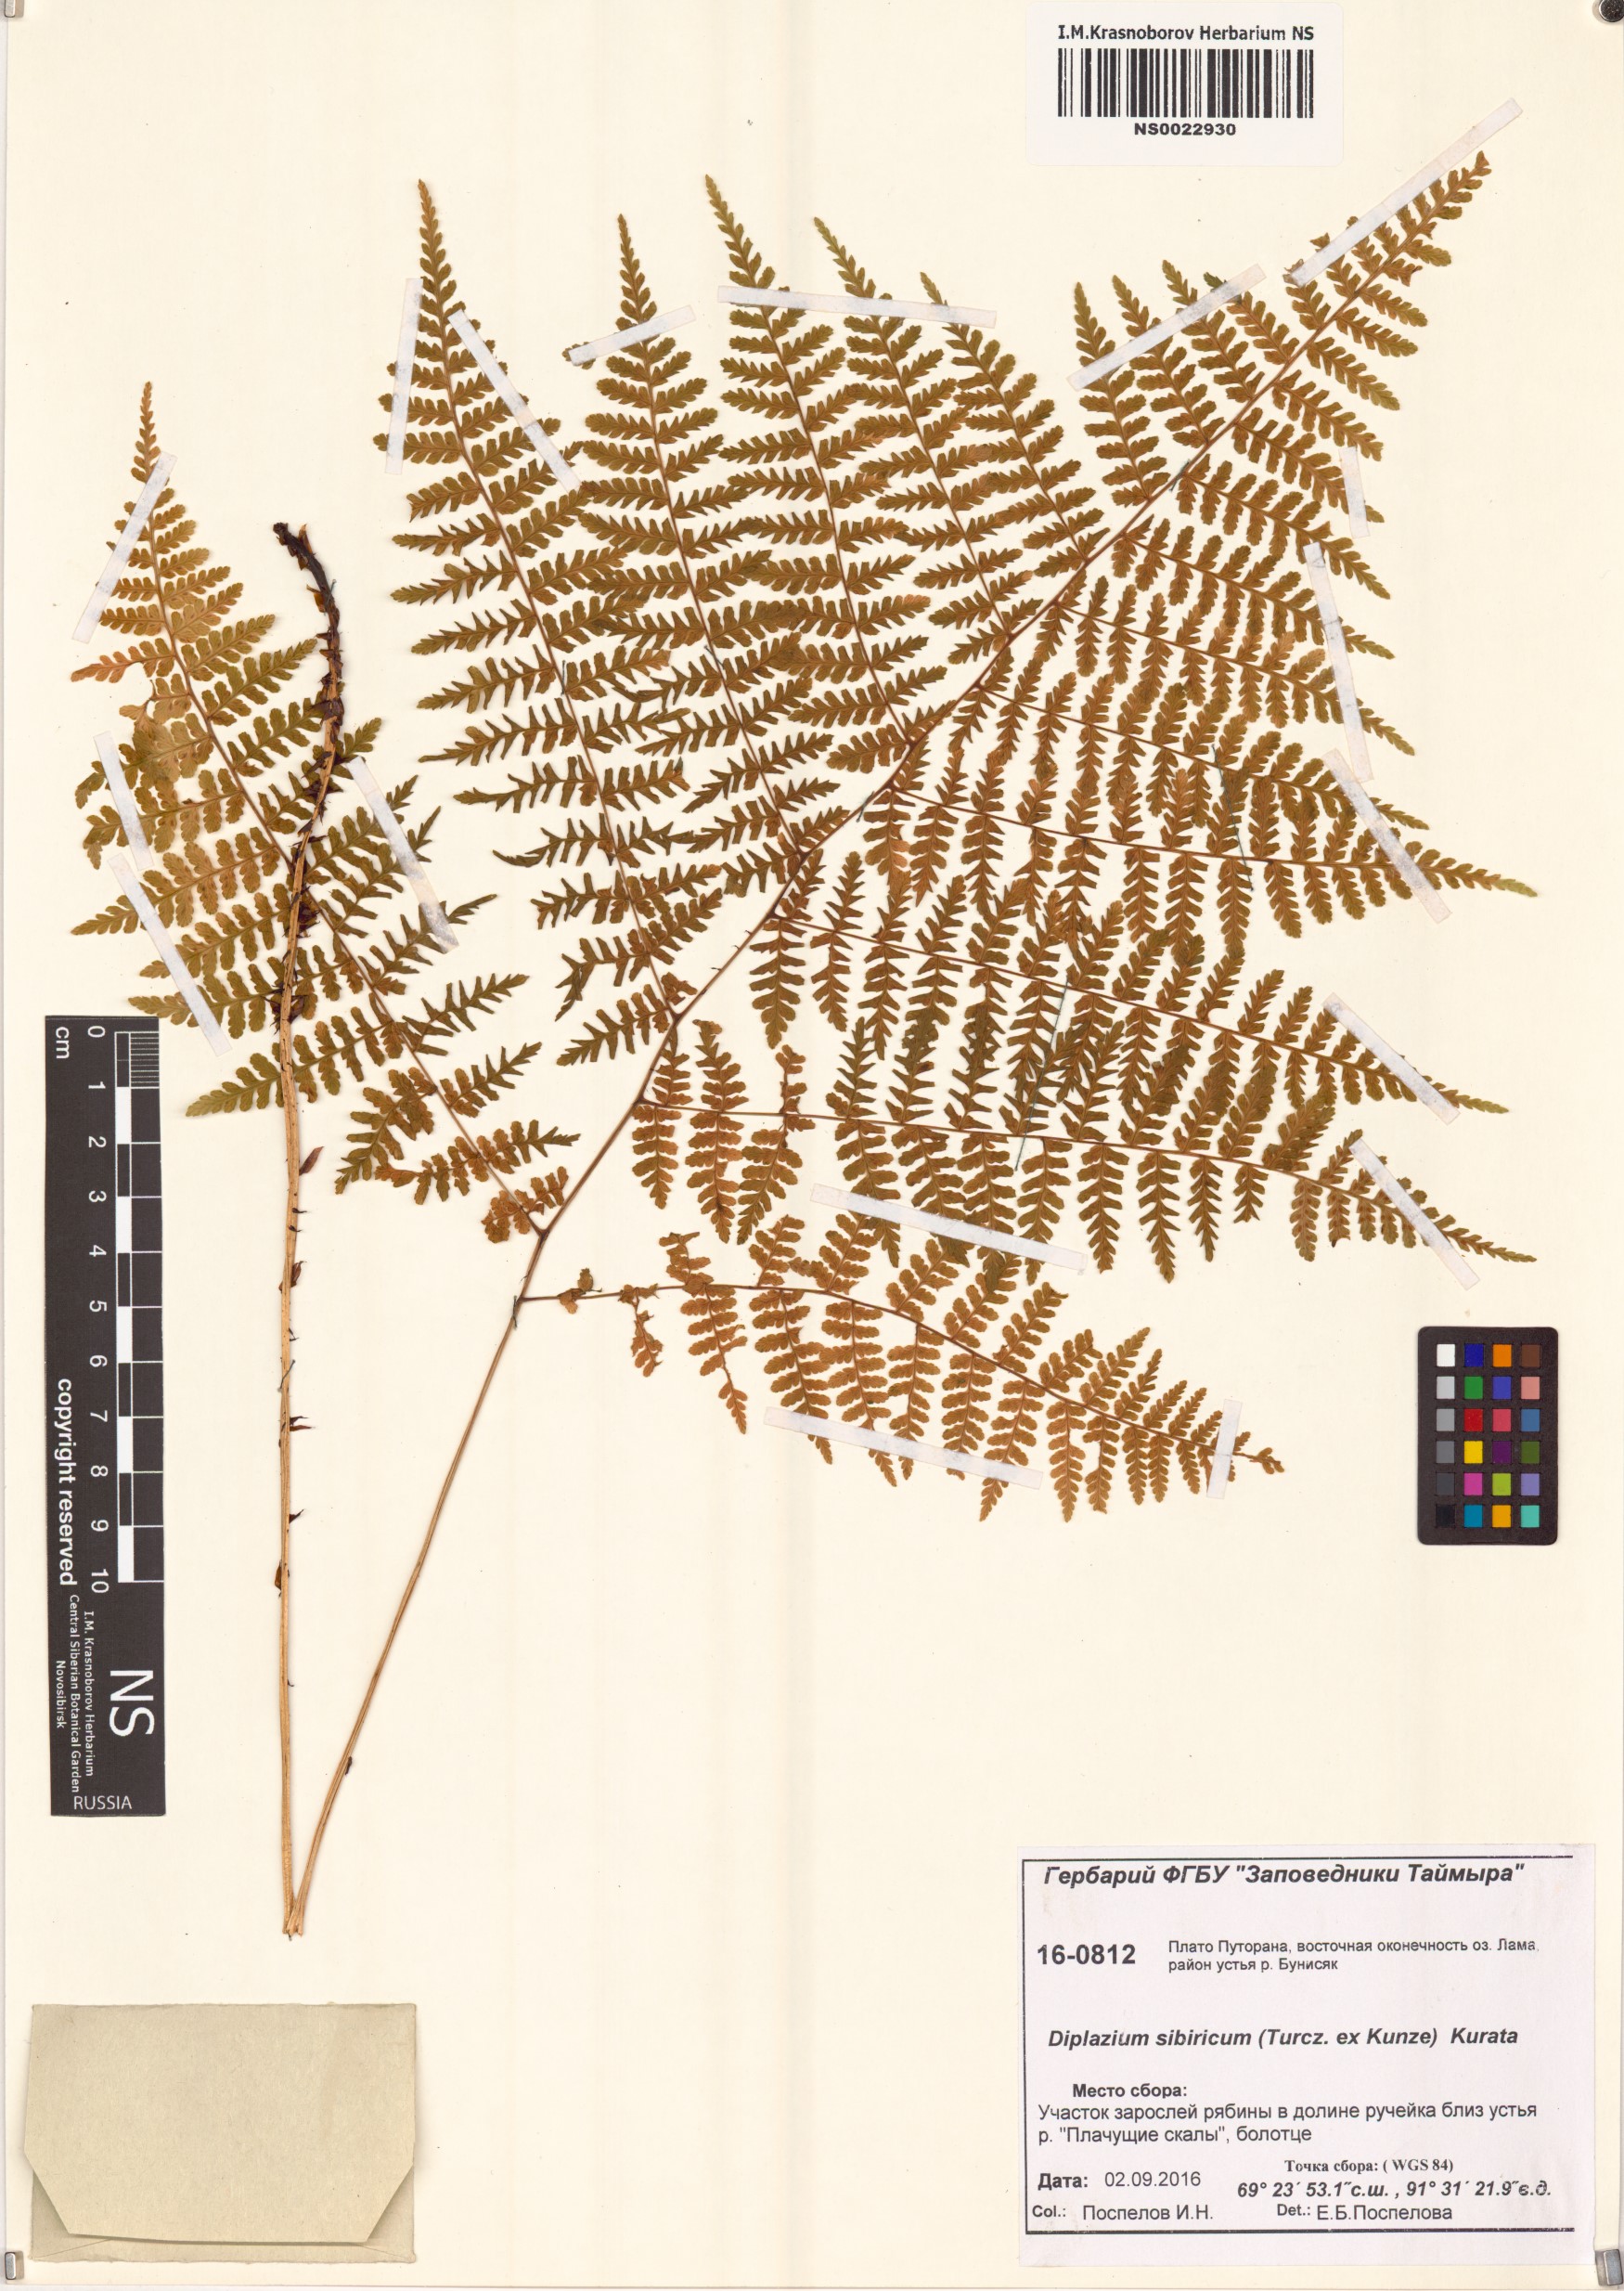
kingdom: Plantae
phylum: Tracheophyta
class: Polypodiopsida
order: Polypodiales
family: Athyriaceae
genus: Diplazium
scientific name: Diplazium sibiricum
